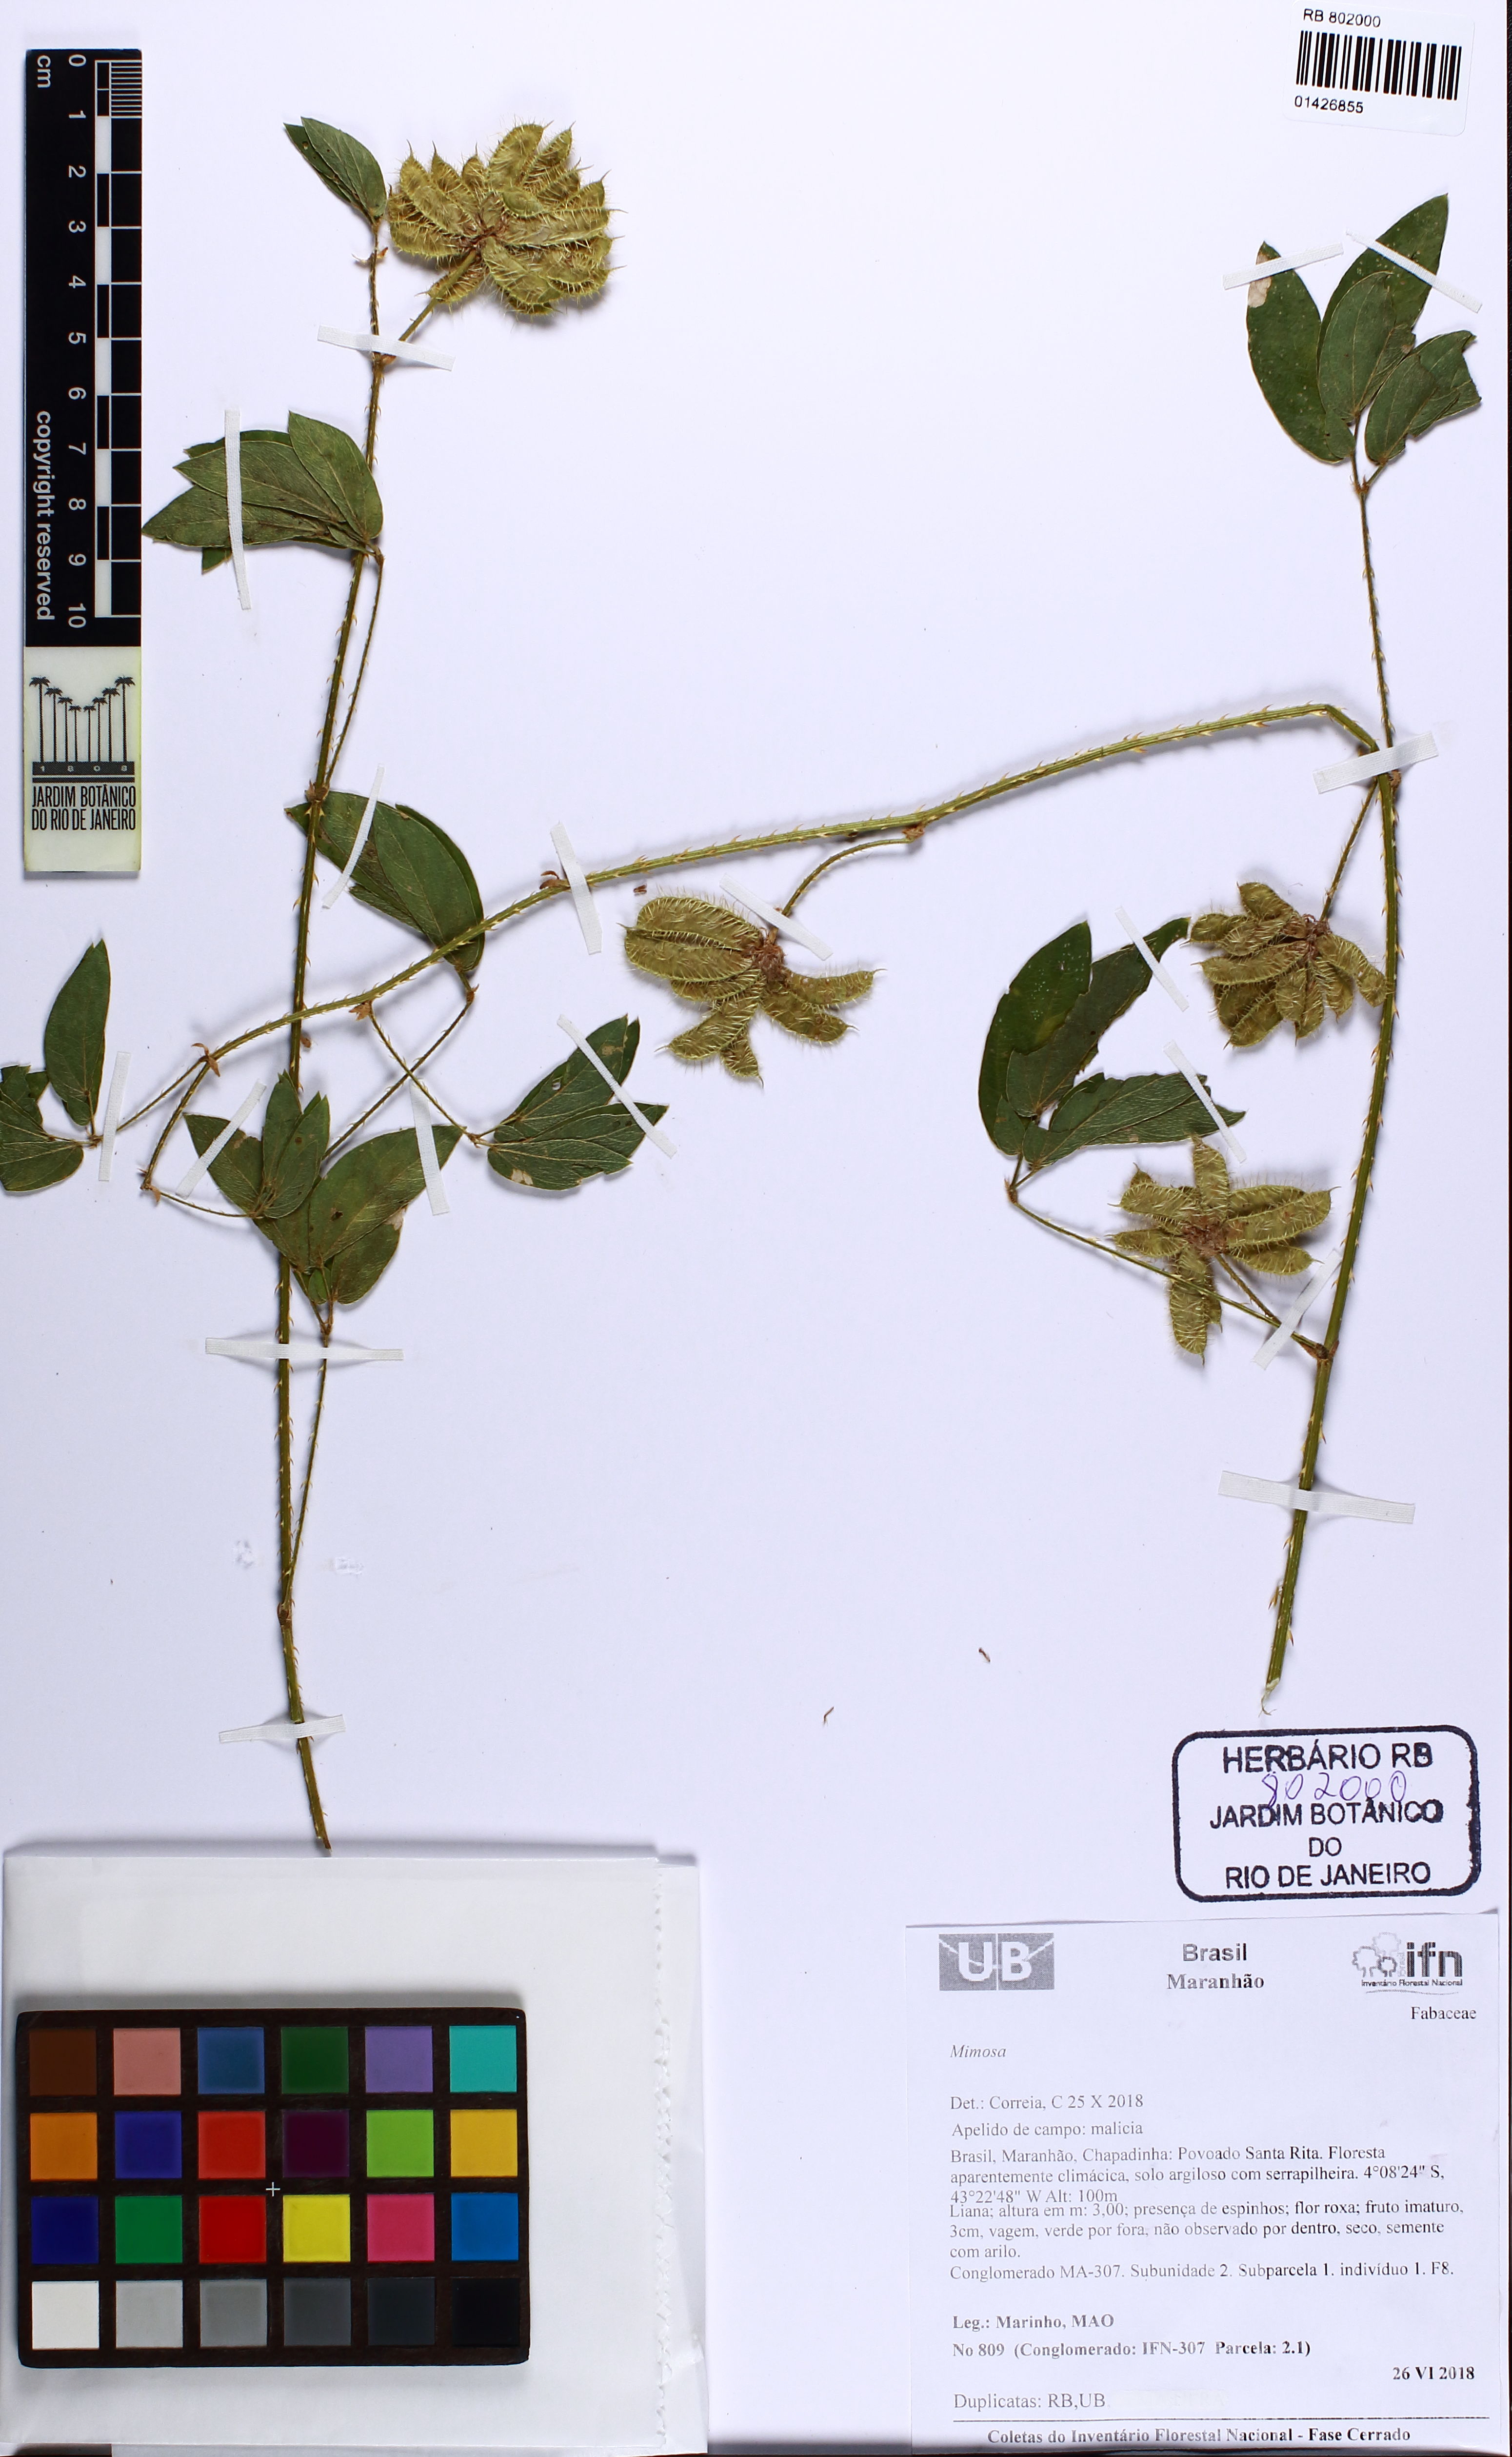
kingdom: Plantae
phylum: Tracheophyta
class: Magnoliopsida
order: Fabales
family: Fabaceae
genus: Mimosa
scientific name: Mimosa sensitiva
